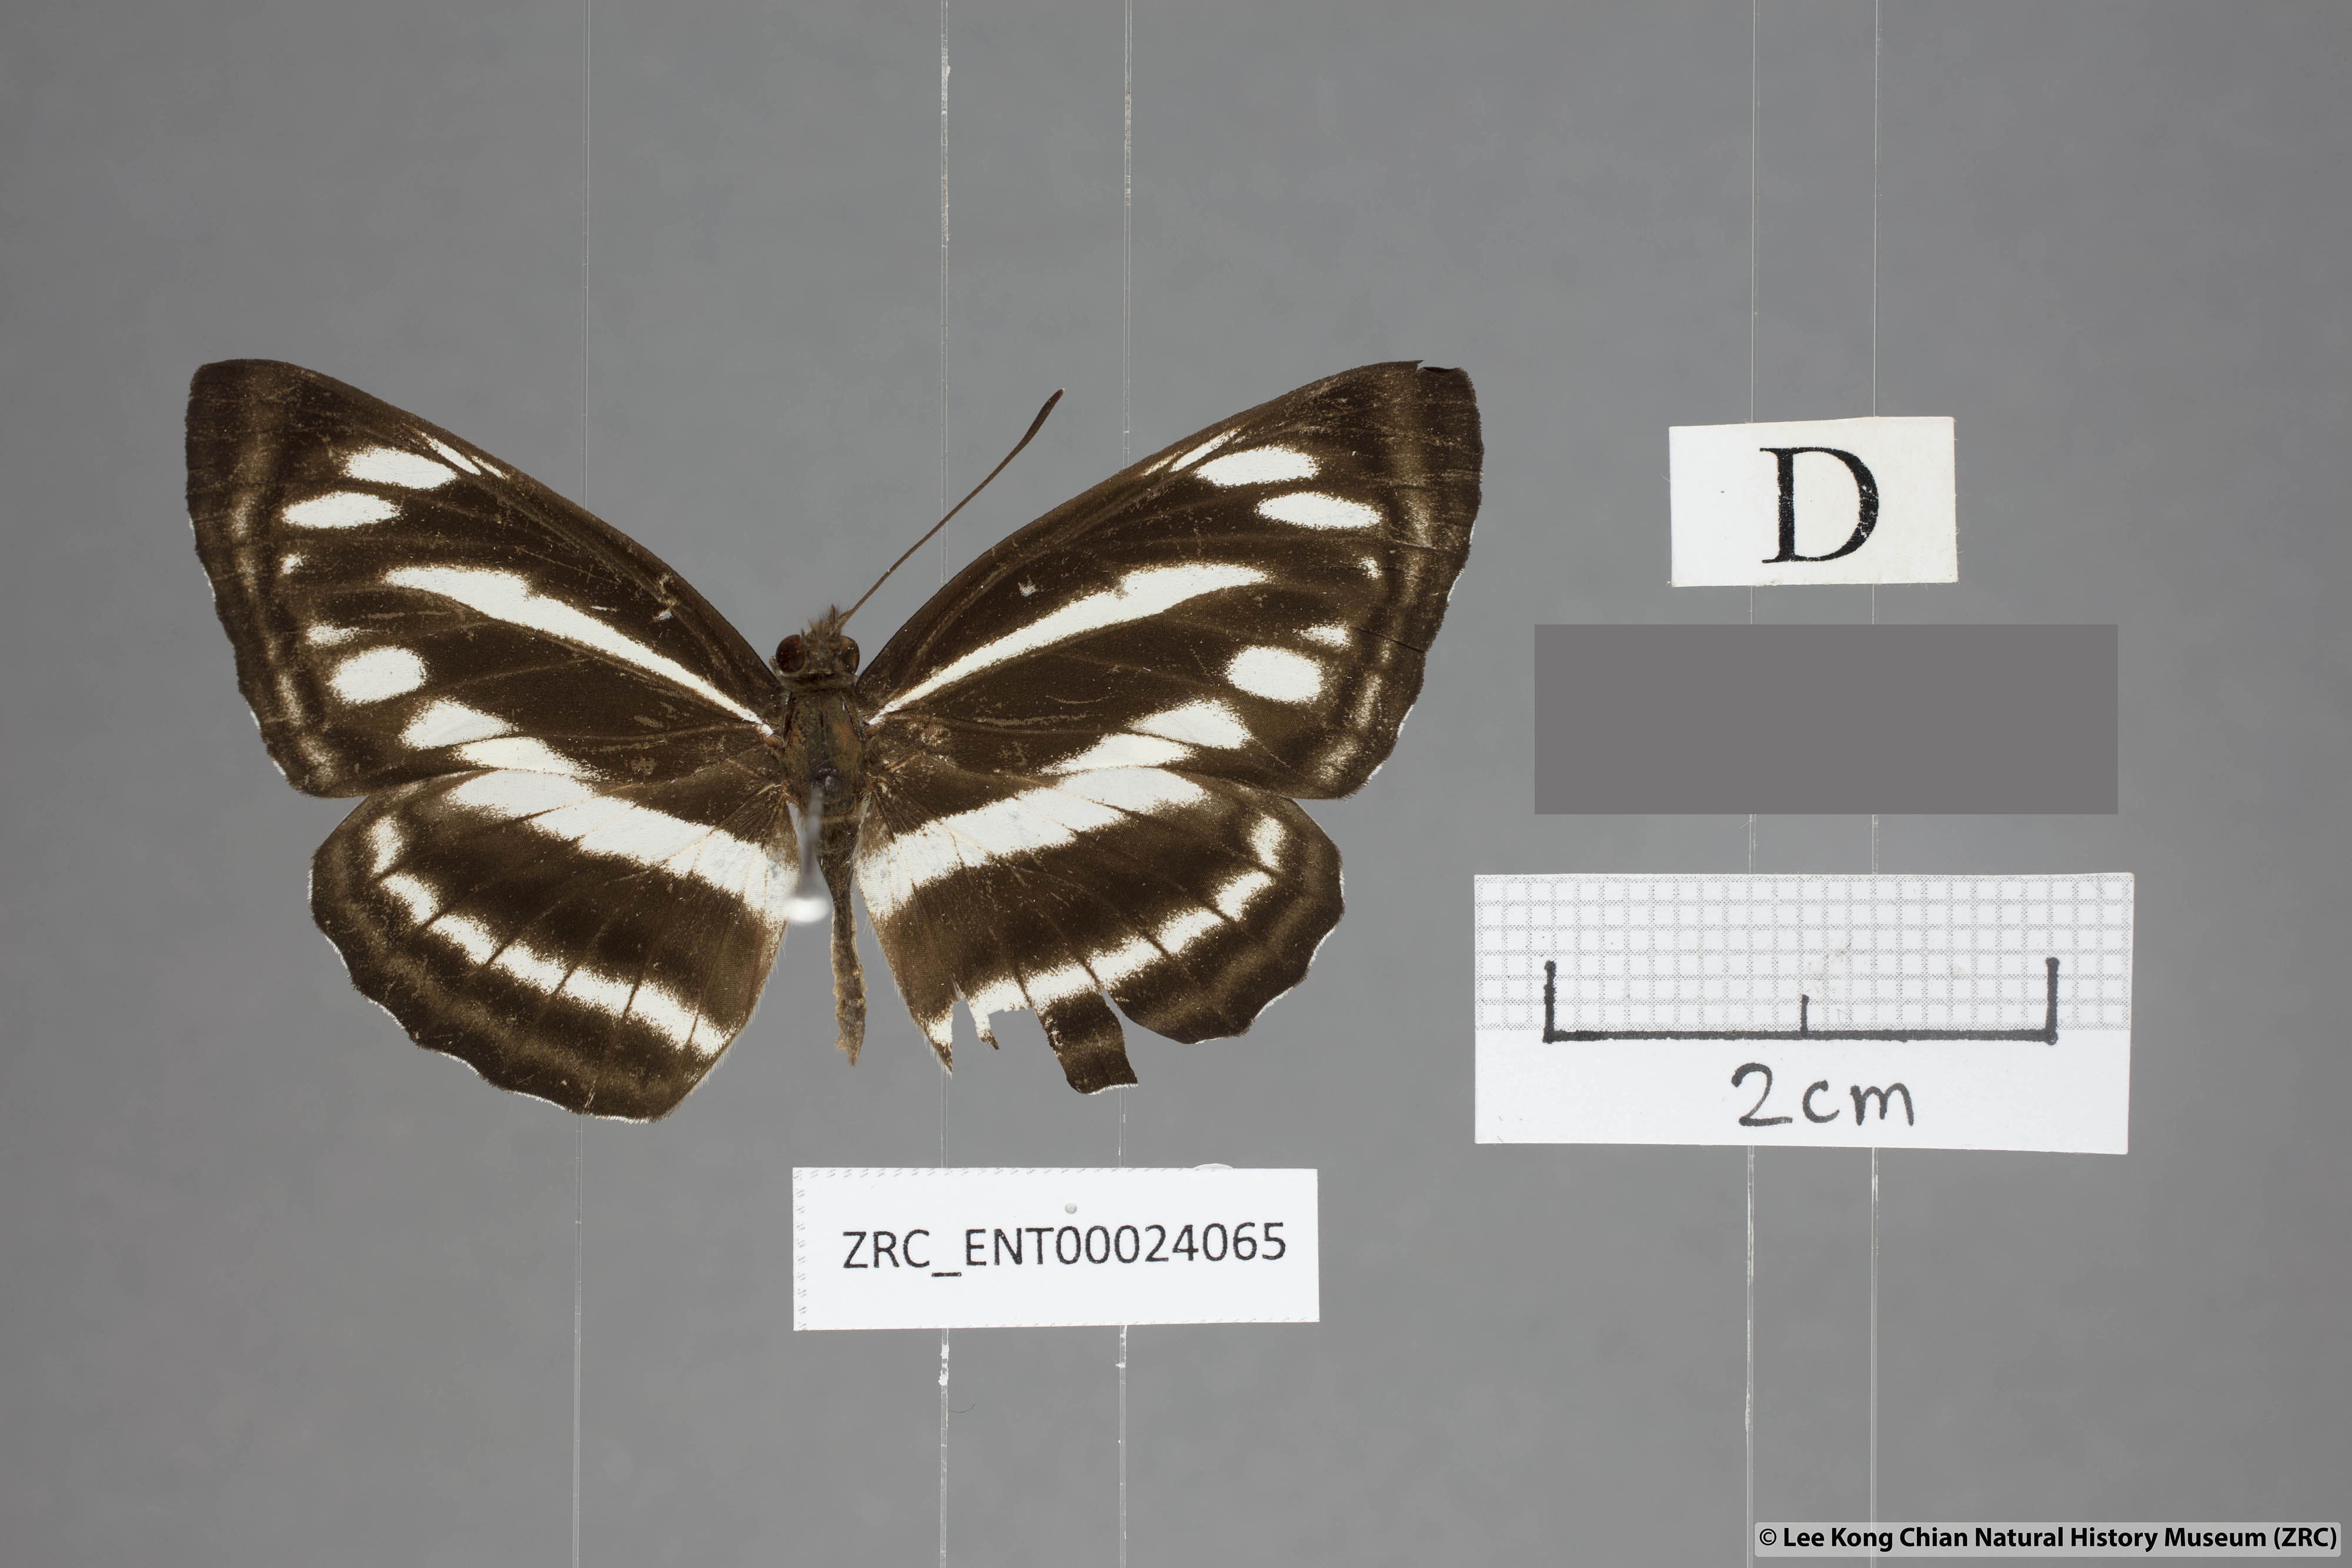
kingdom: Animalia
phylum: Arthropoda
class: Insecta
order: Lepidoptera
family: Nymphalidae
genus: Neptis
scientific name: Neptis sankara
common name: Broad-banded sailer
